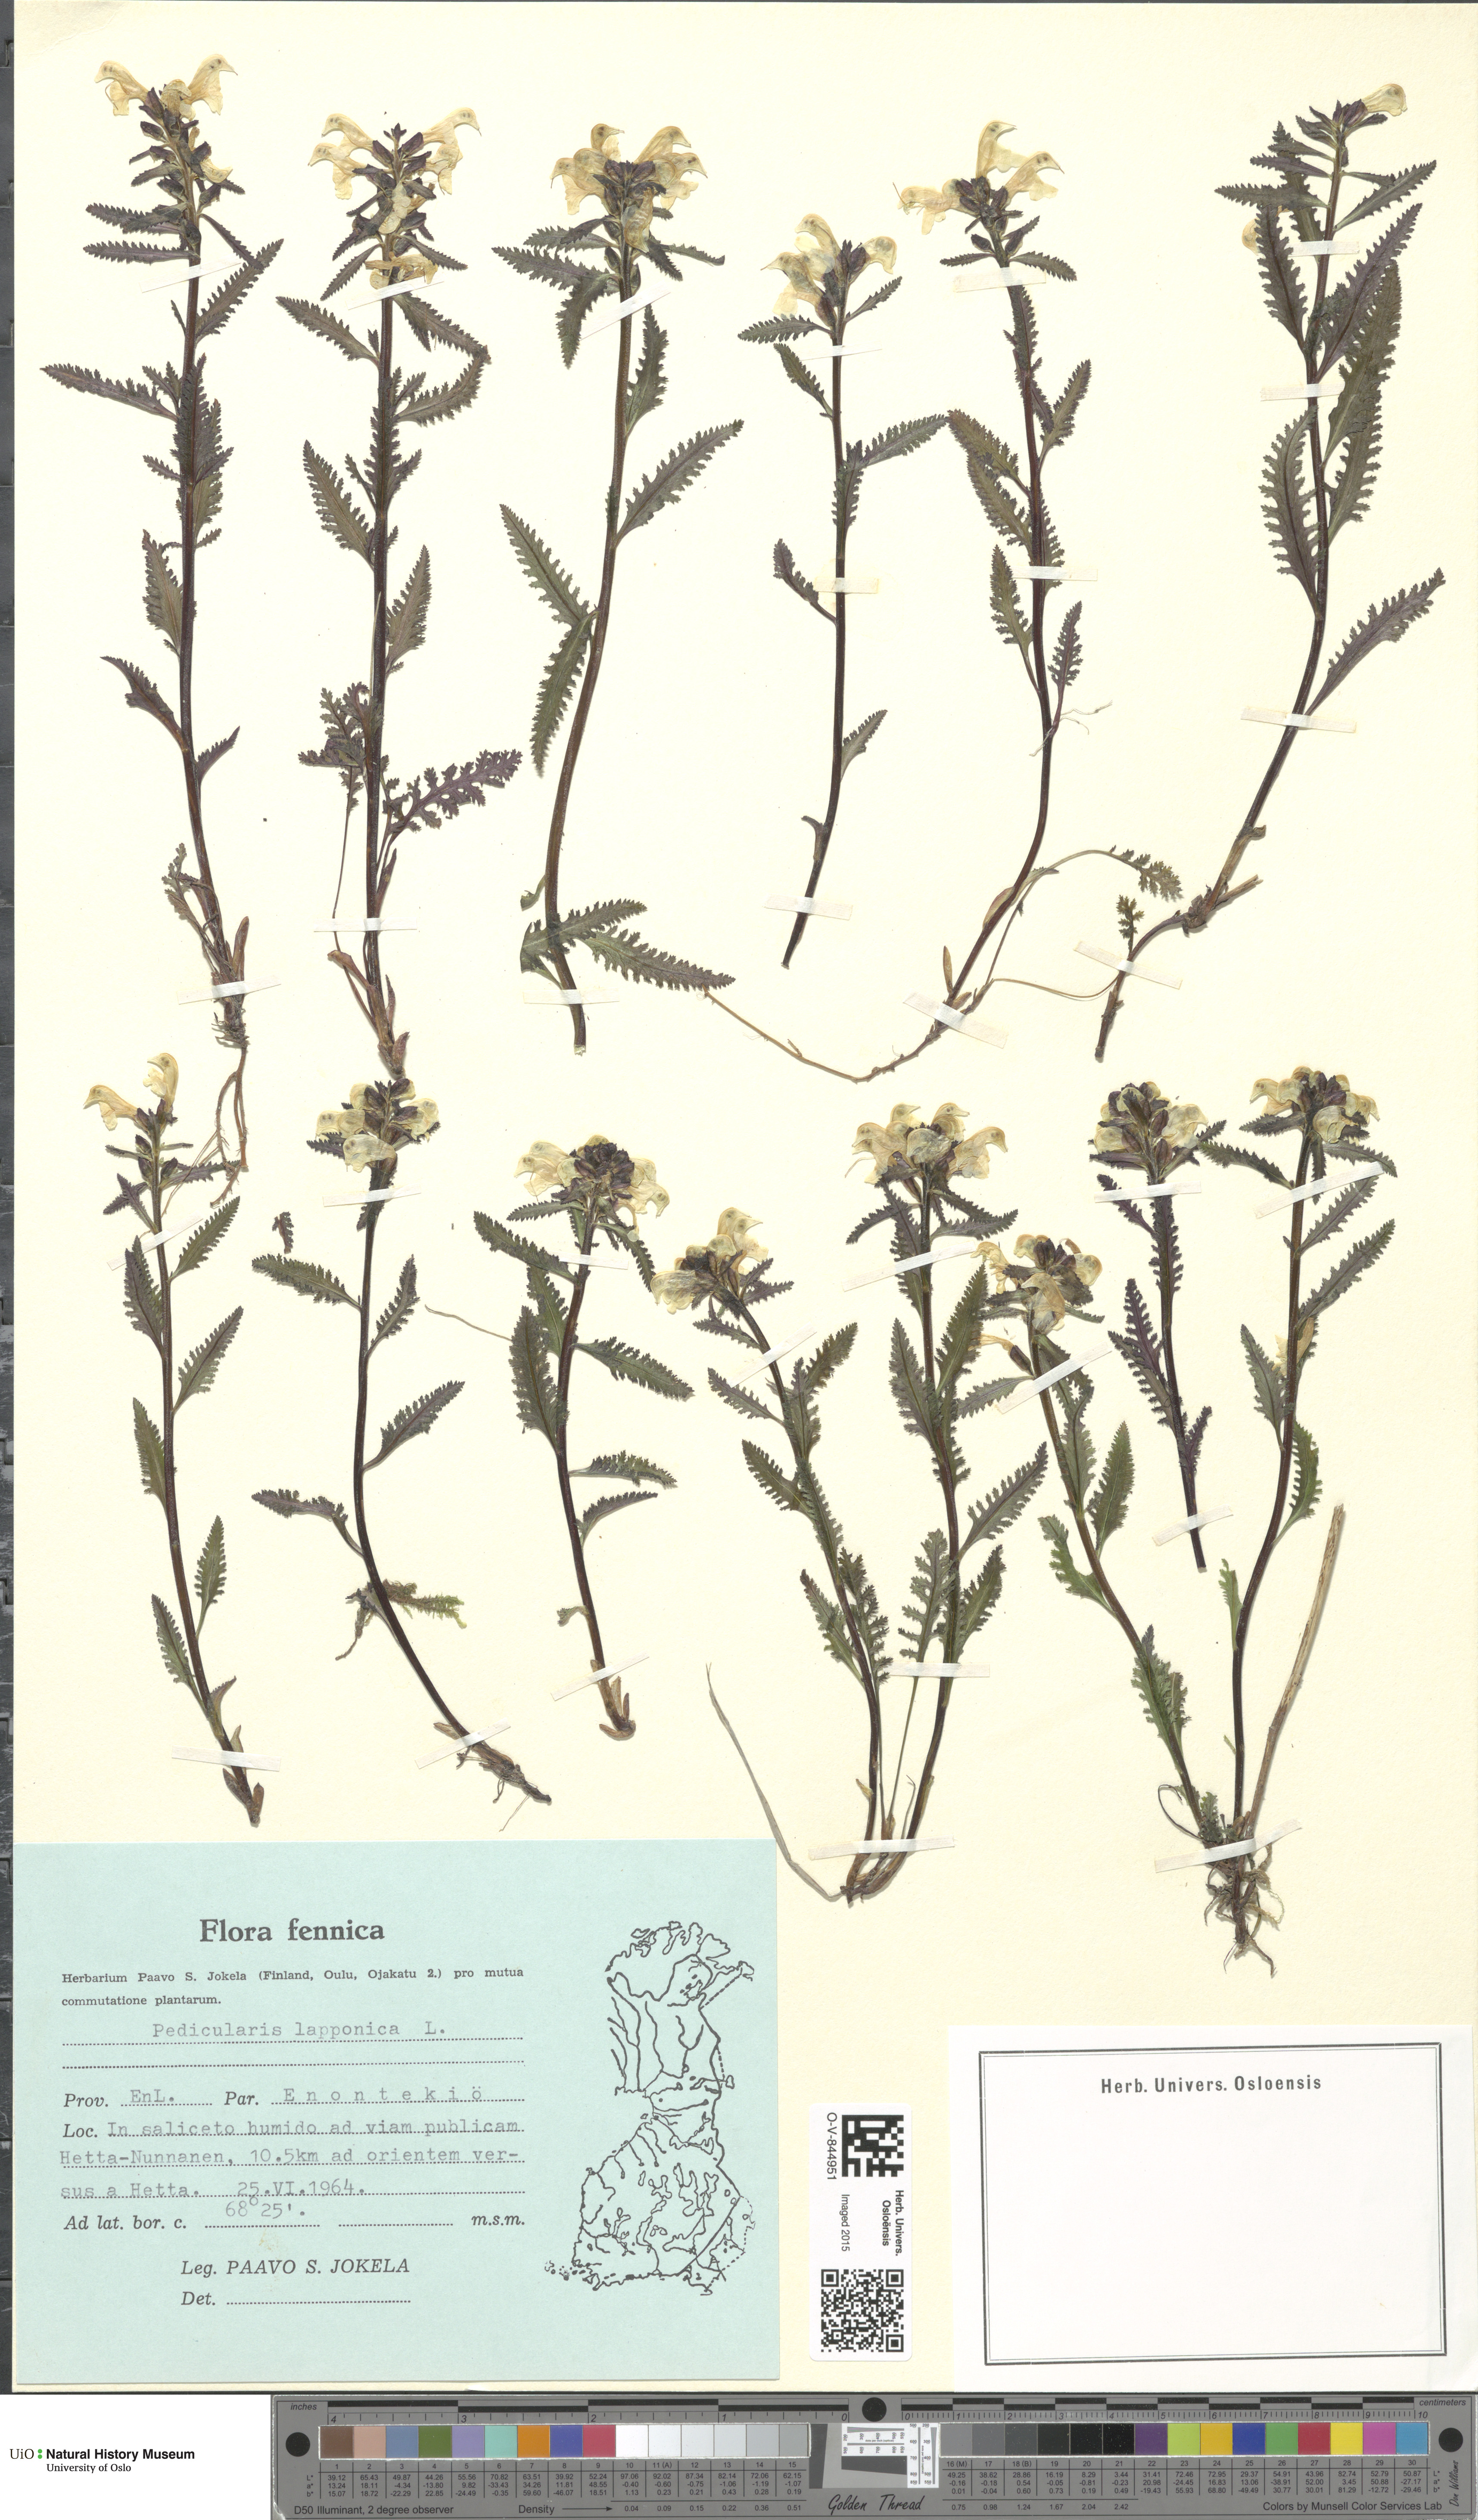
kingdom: Plantae
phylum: Tracheophyta
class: Magnoliopsida
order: Lamiales
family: Orobanchaceae
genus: Pedicularis
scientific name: Pedicularis lapponica
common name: Lapland lousewort
